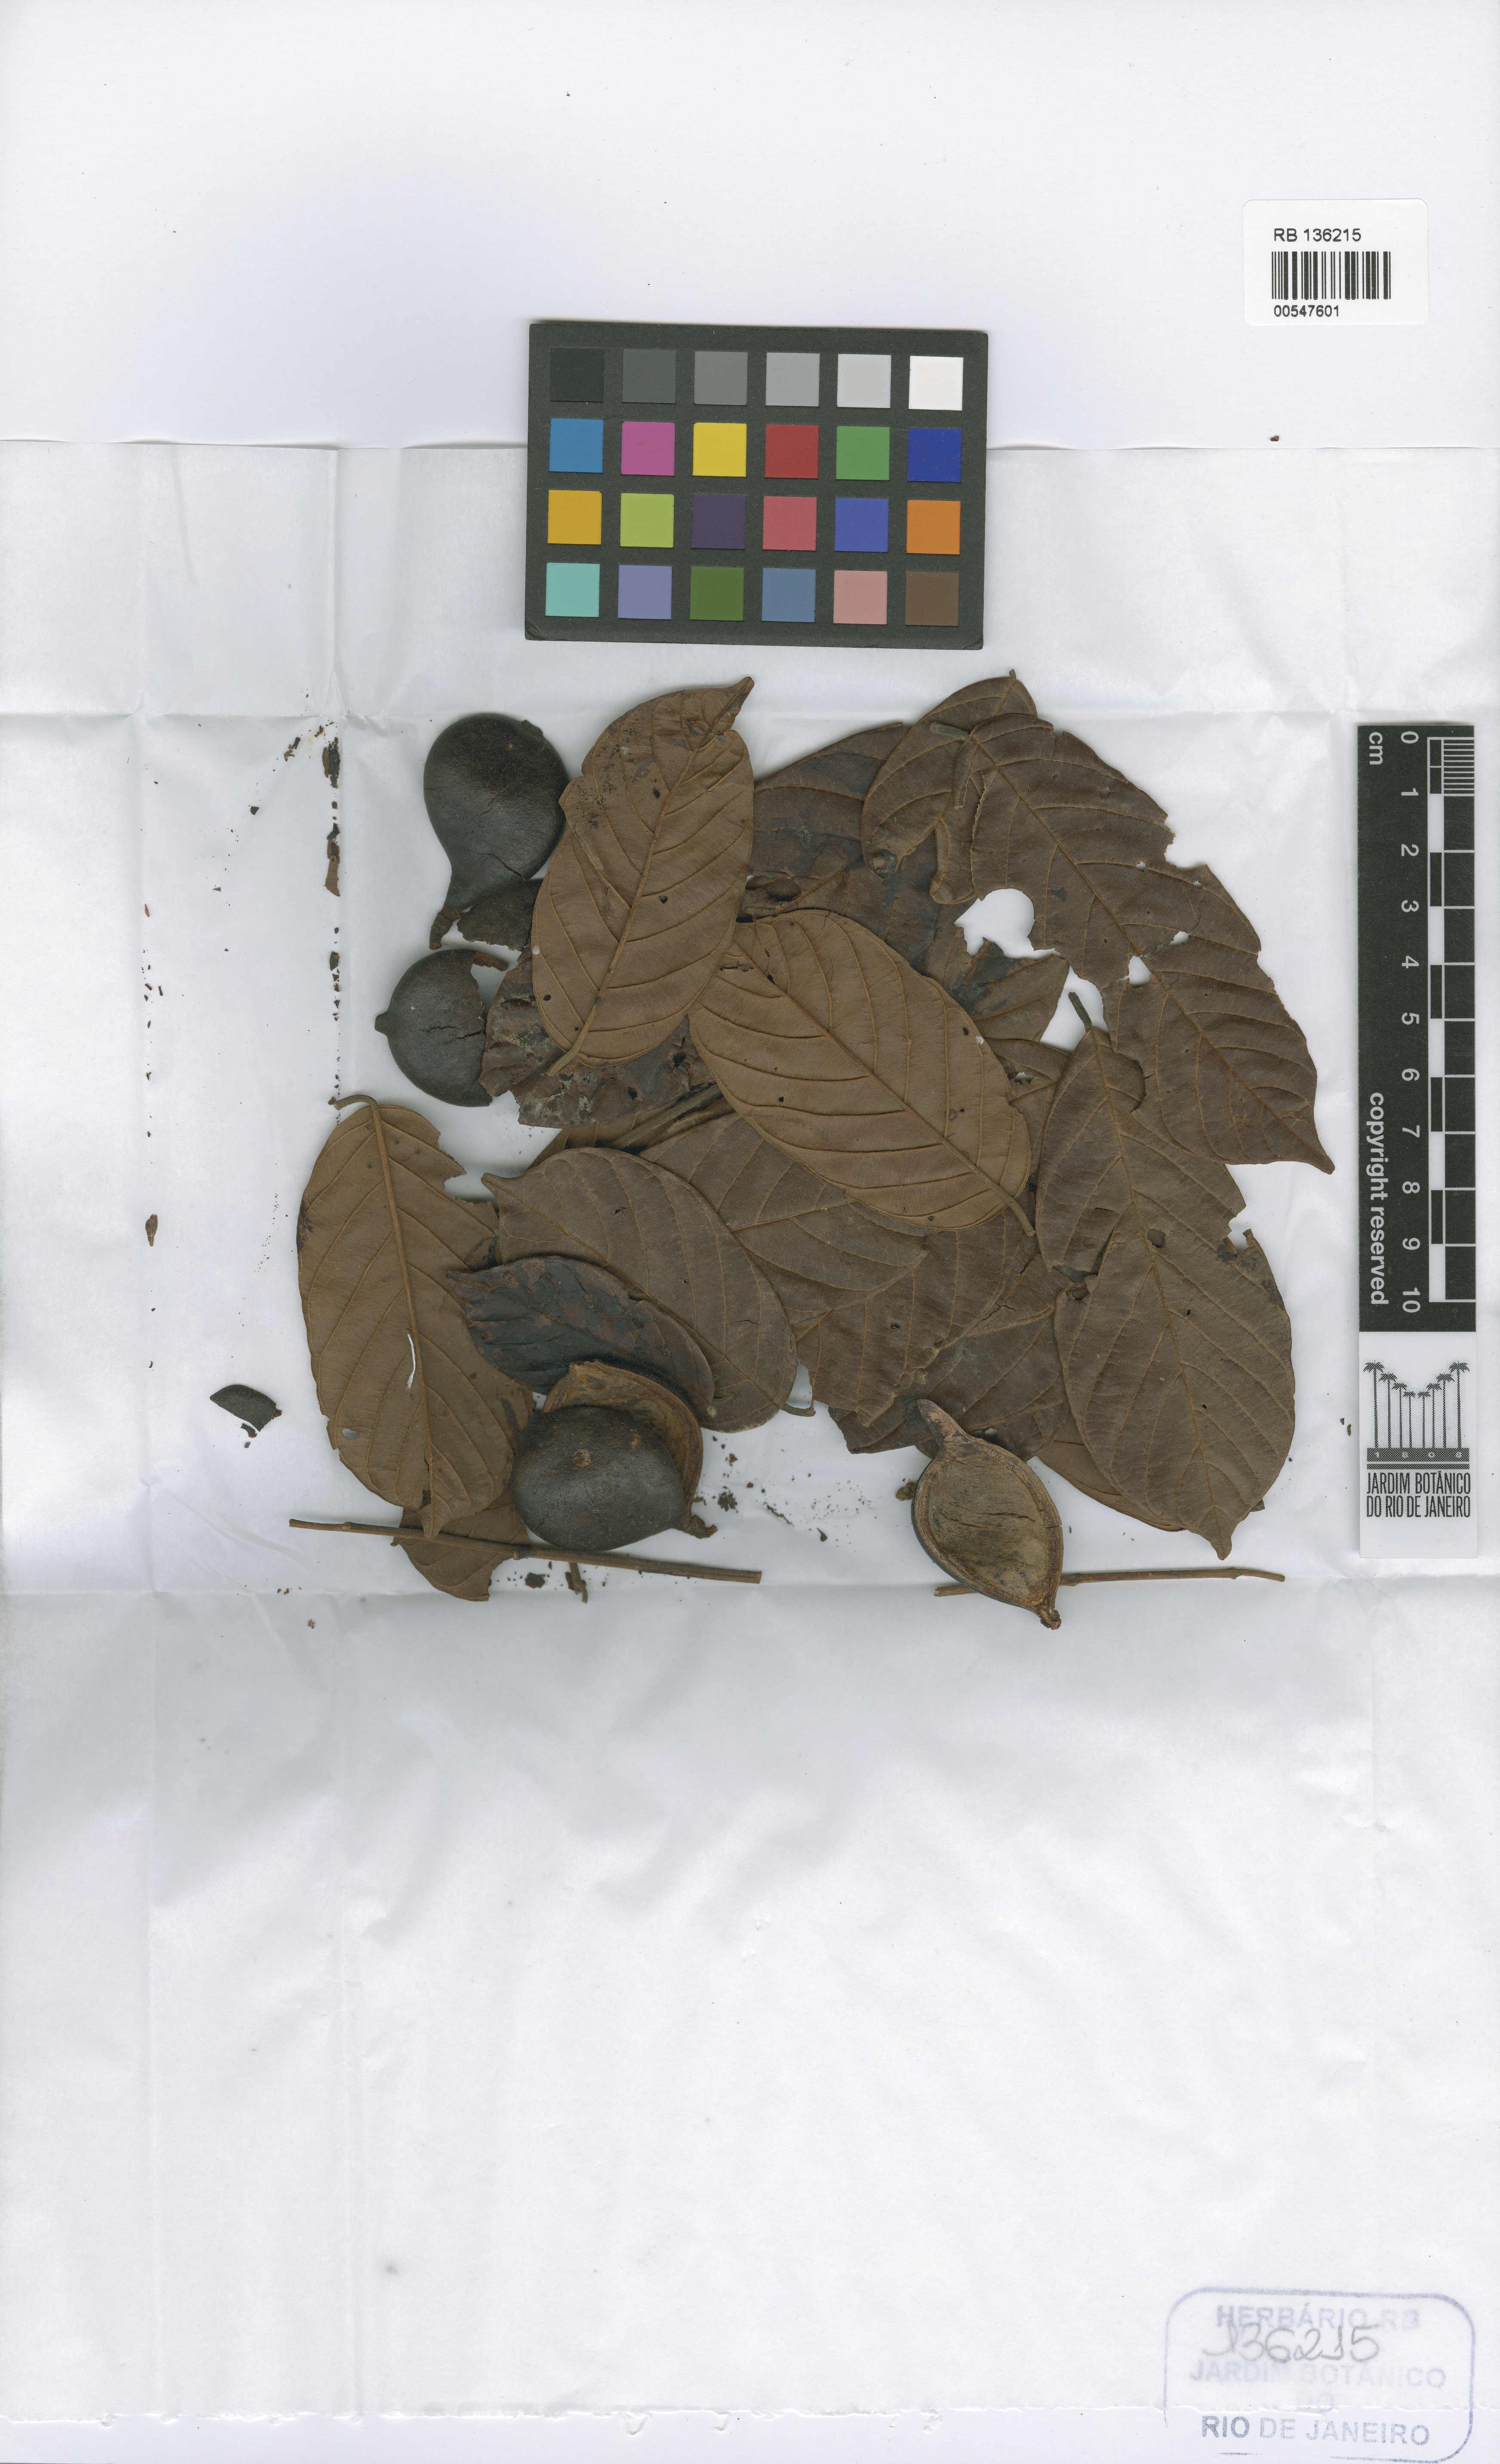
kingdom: Plantae
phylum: Tracheophyta
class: Magnoliopsida
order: Fabales
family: Fabaceae
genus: Ormosia
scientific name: Ormosia elata
